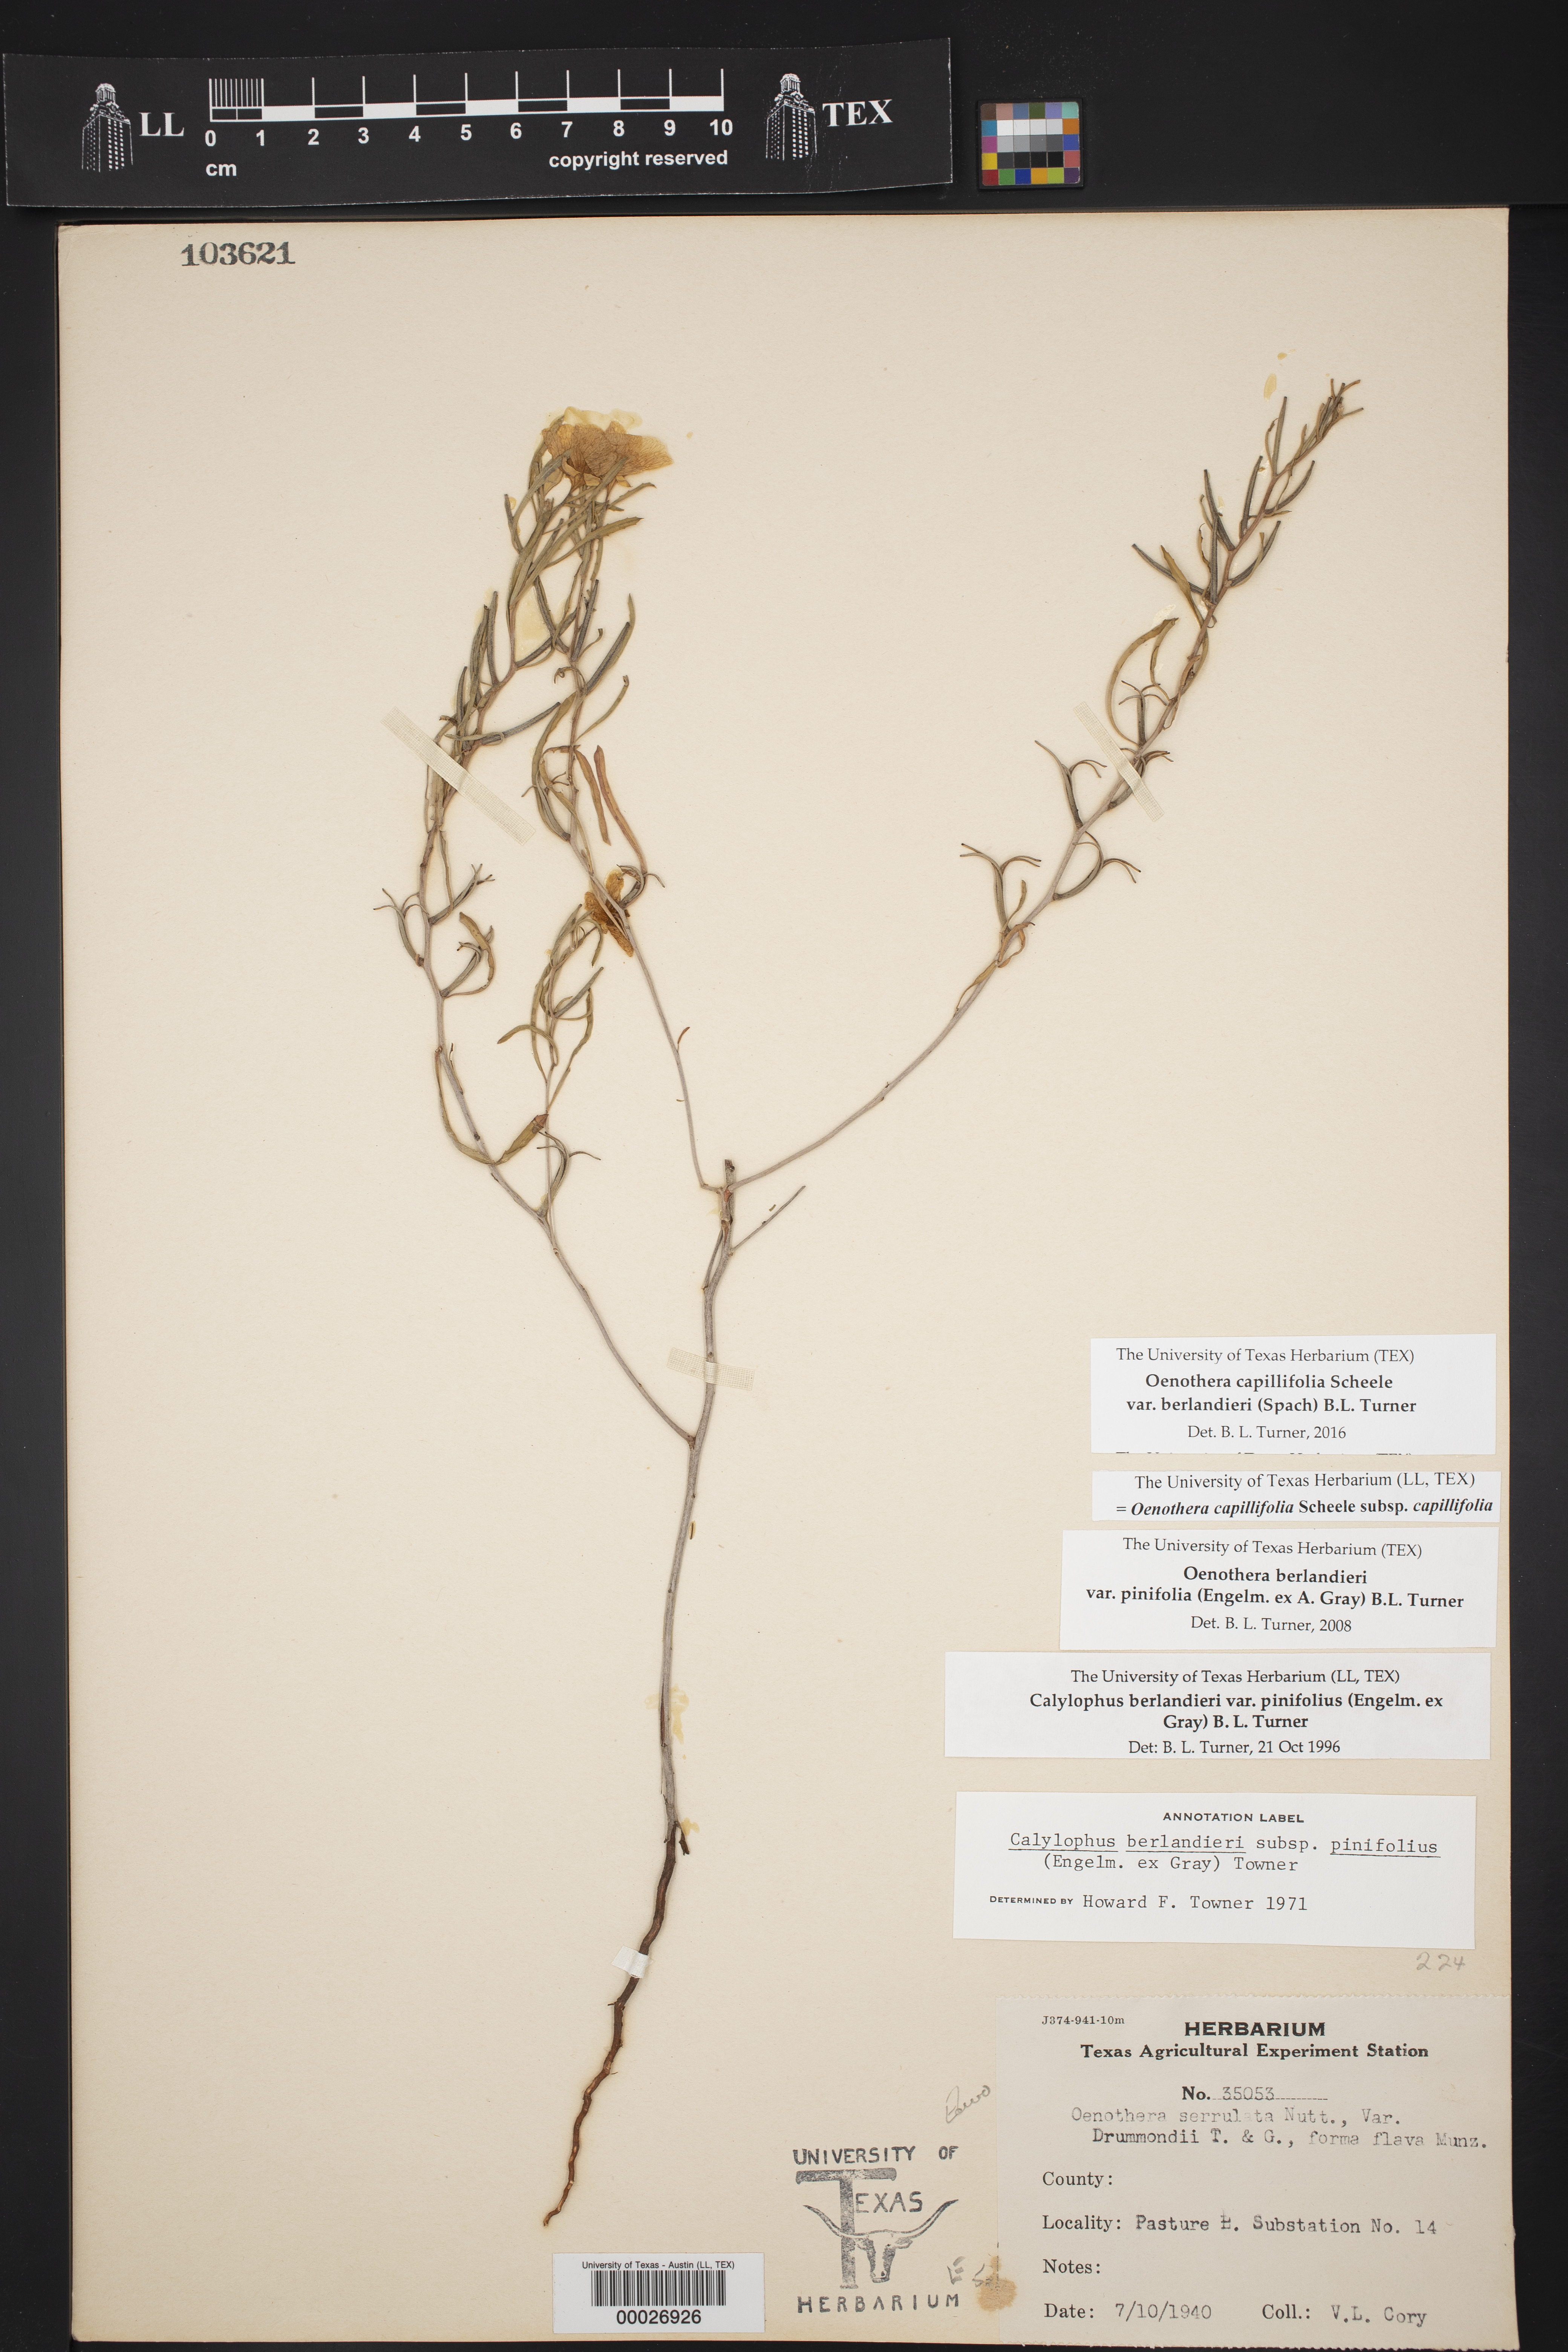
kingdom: Plantae
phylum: Tracheophyta
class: Magnoliopsida
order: Myrtales
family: Onagraceae
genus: Oenothera
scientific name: Oenothera capillifolia
